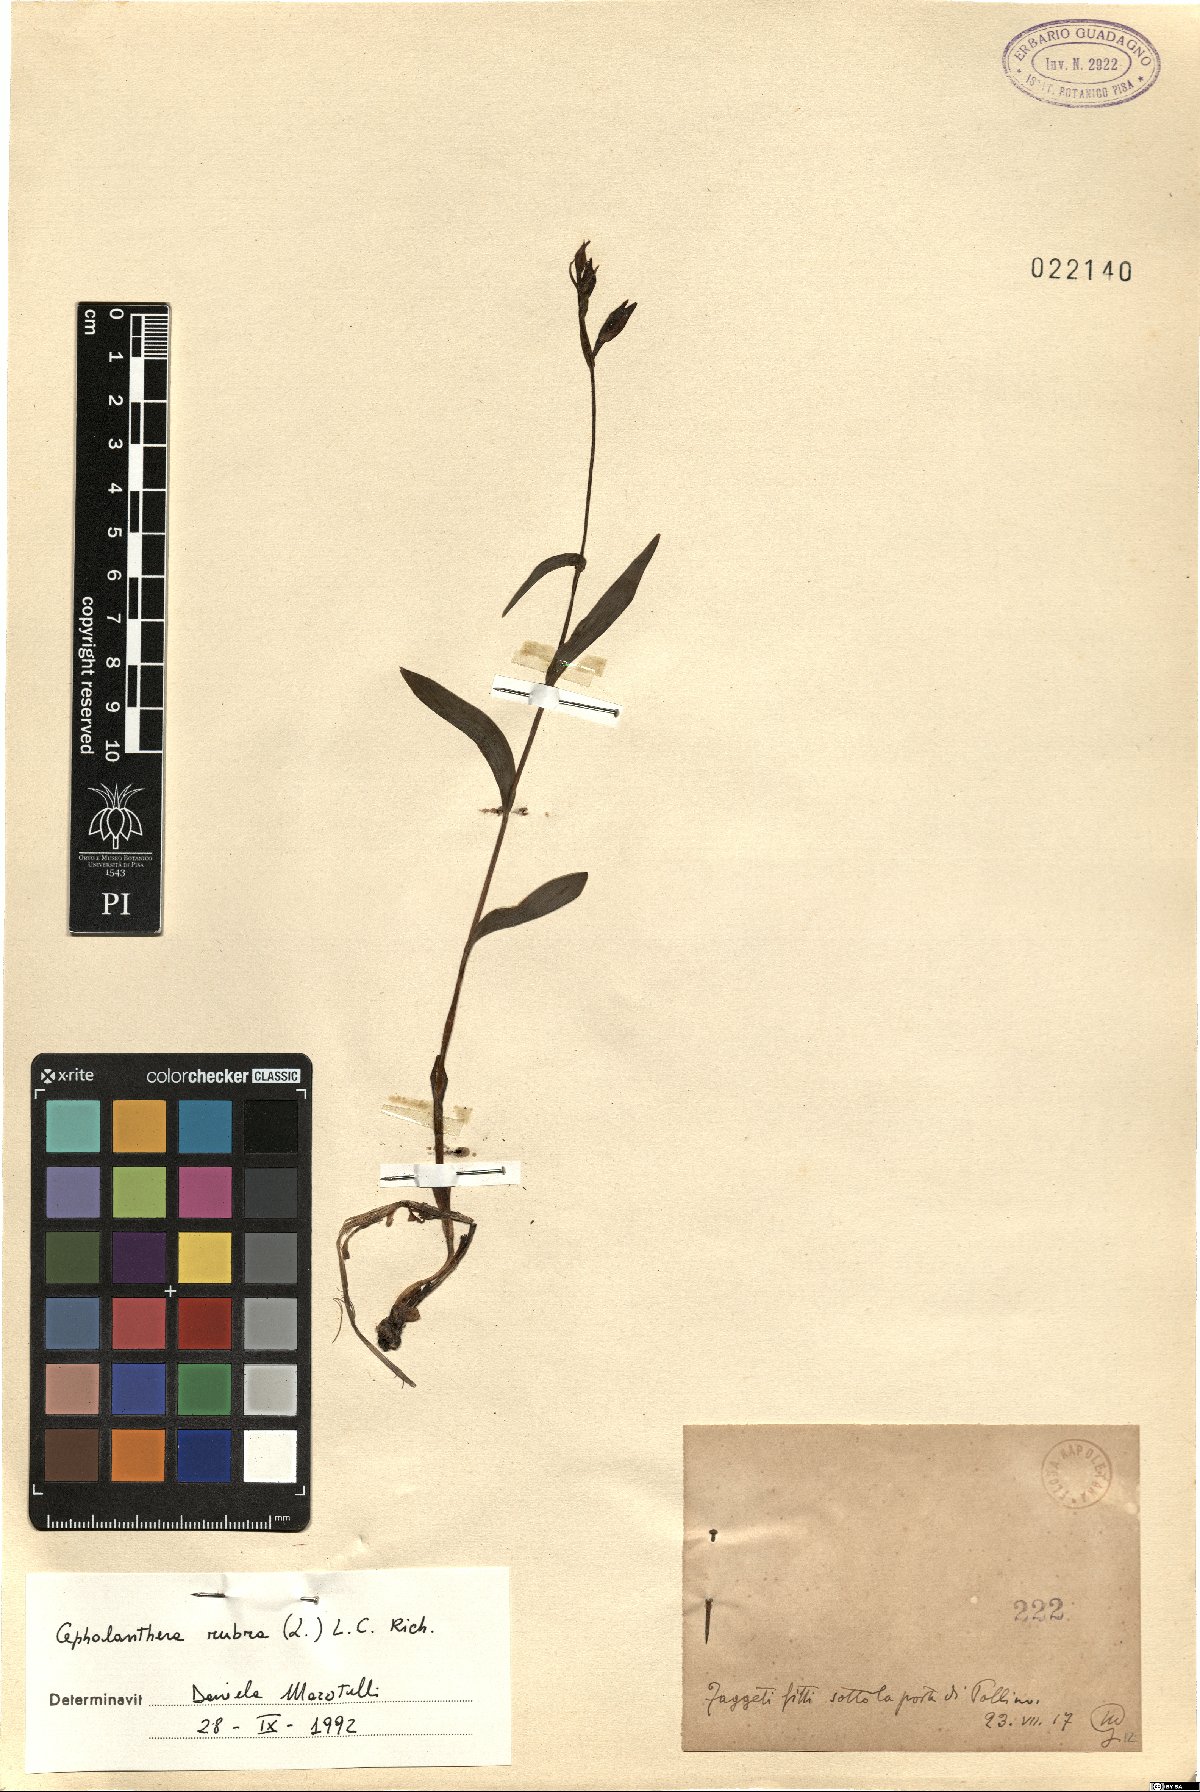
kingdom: Plantae
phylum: Tracheophyta
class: Liliopsida
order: Asparagales
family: Orchidaceae
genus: Cephalanthera
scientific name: Cephalanthera rubra
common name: Red helleborine
